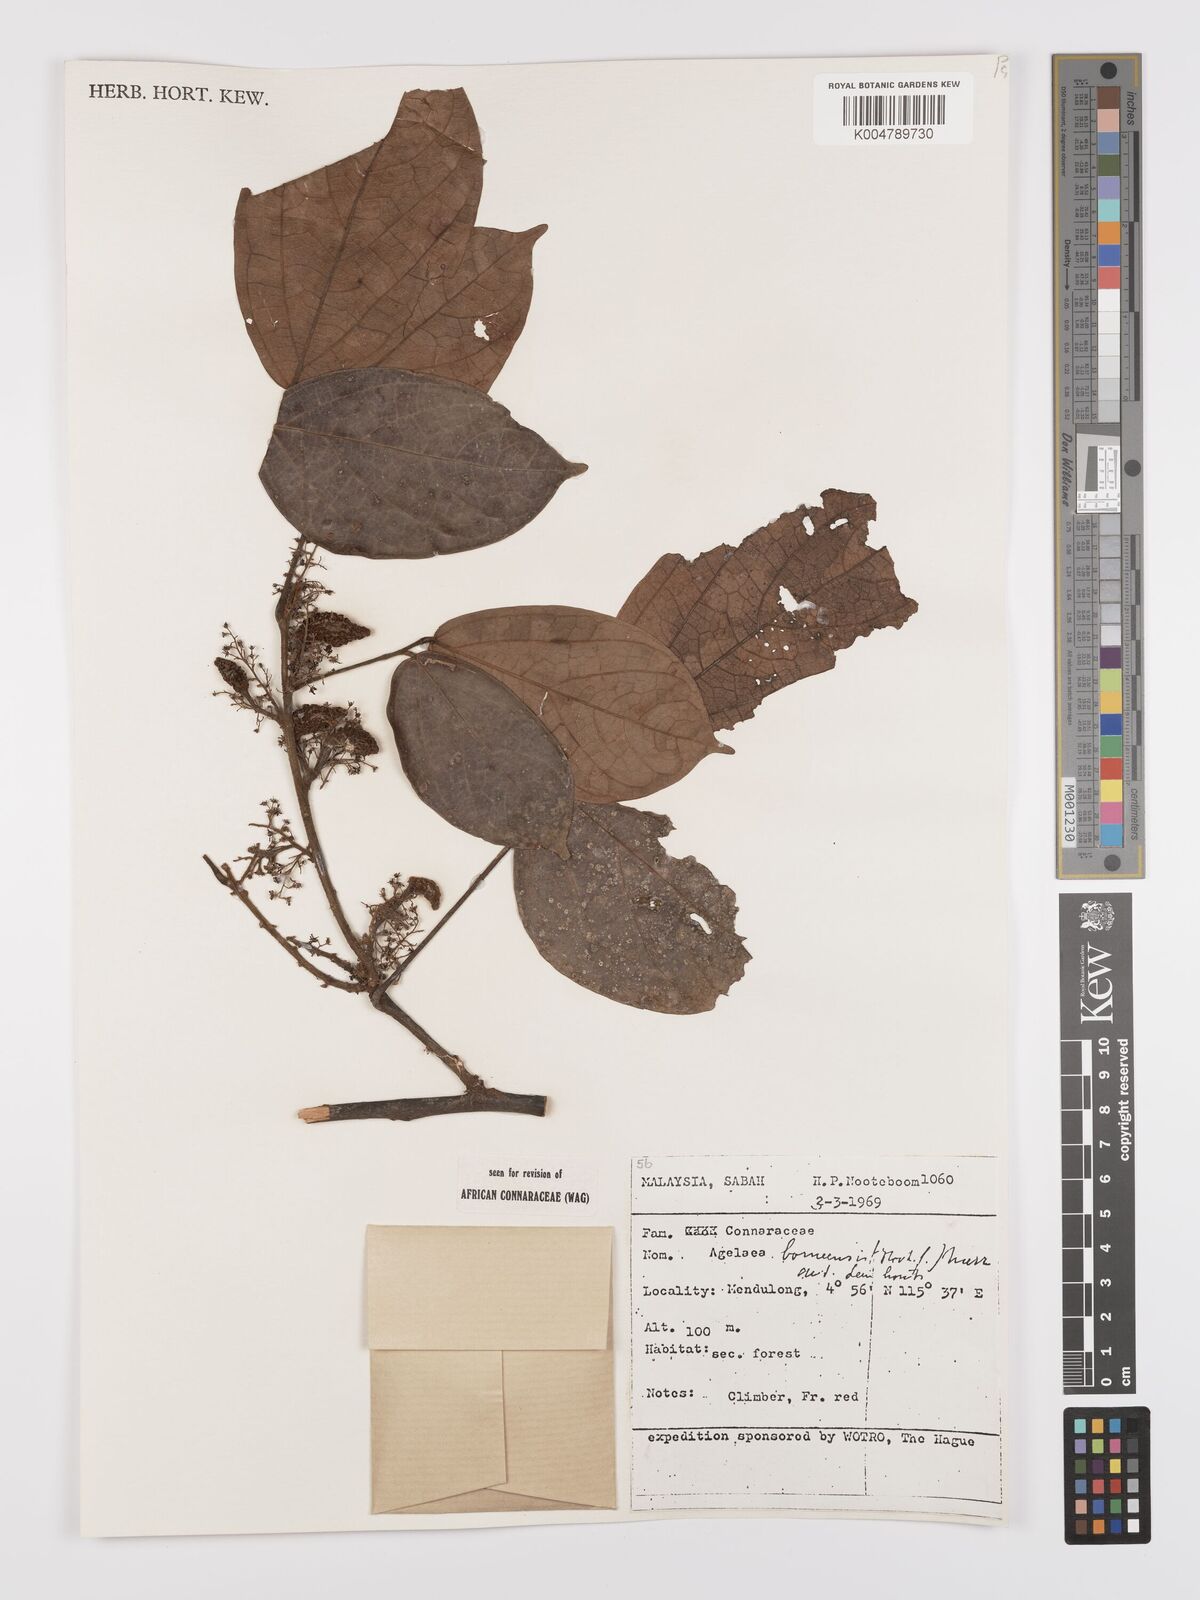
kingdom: Plantae
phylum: Tracheophyta
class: Magnoliopsida
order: Oxalidales
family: Connaraceae
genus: Agelaea
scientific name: Agelaea borneensis
